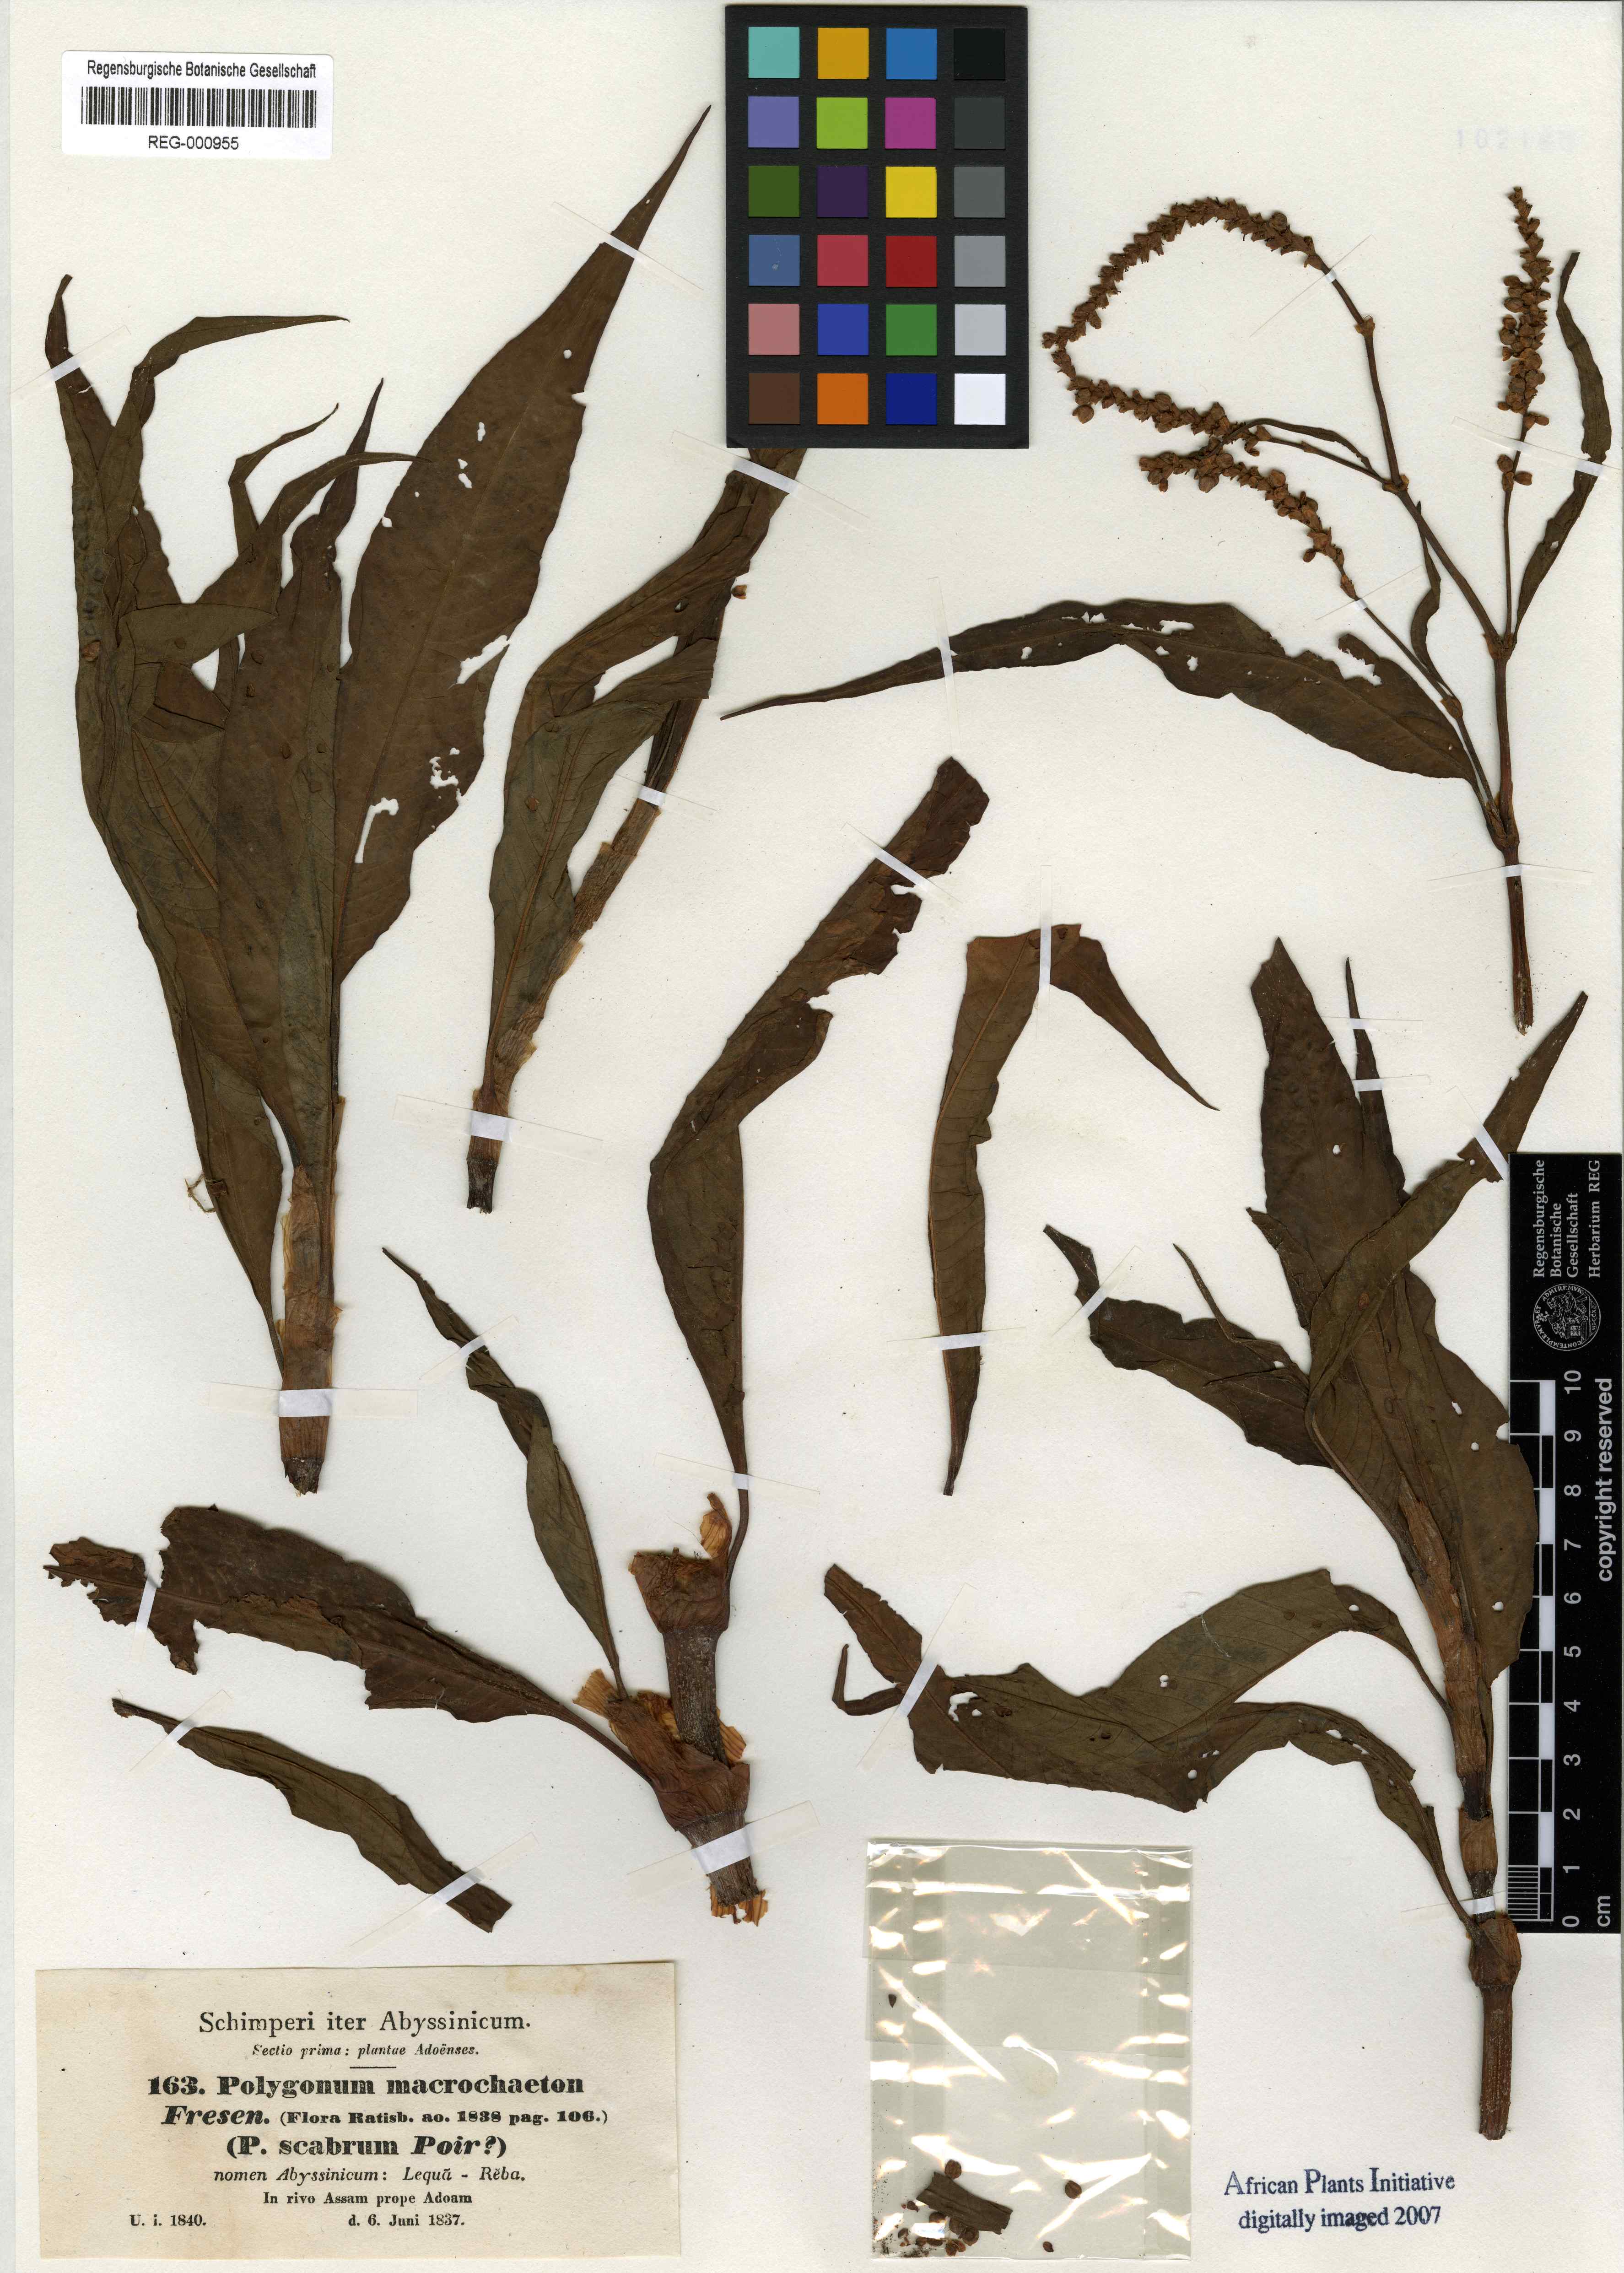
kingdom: Plantae
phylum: Tracheophyta
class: Magnoliopsida
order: Caryophyllales
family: Polygonaceae
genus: Persicaria
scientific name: Persicaria senegalensis
